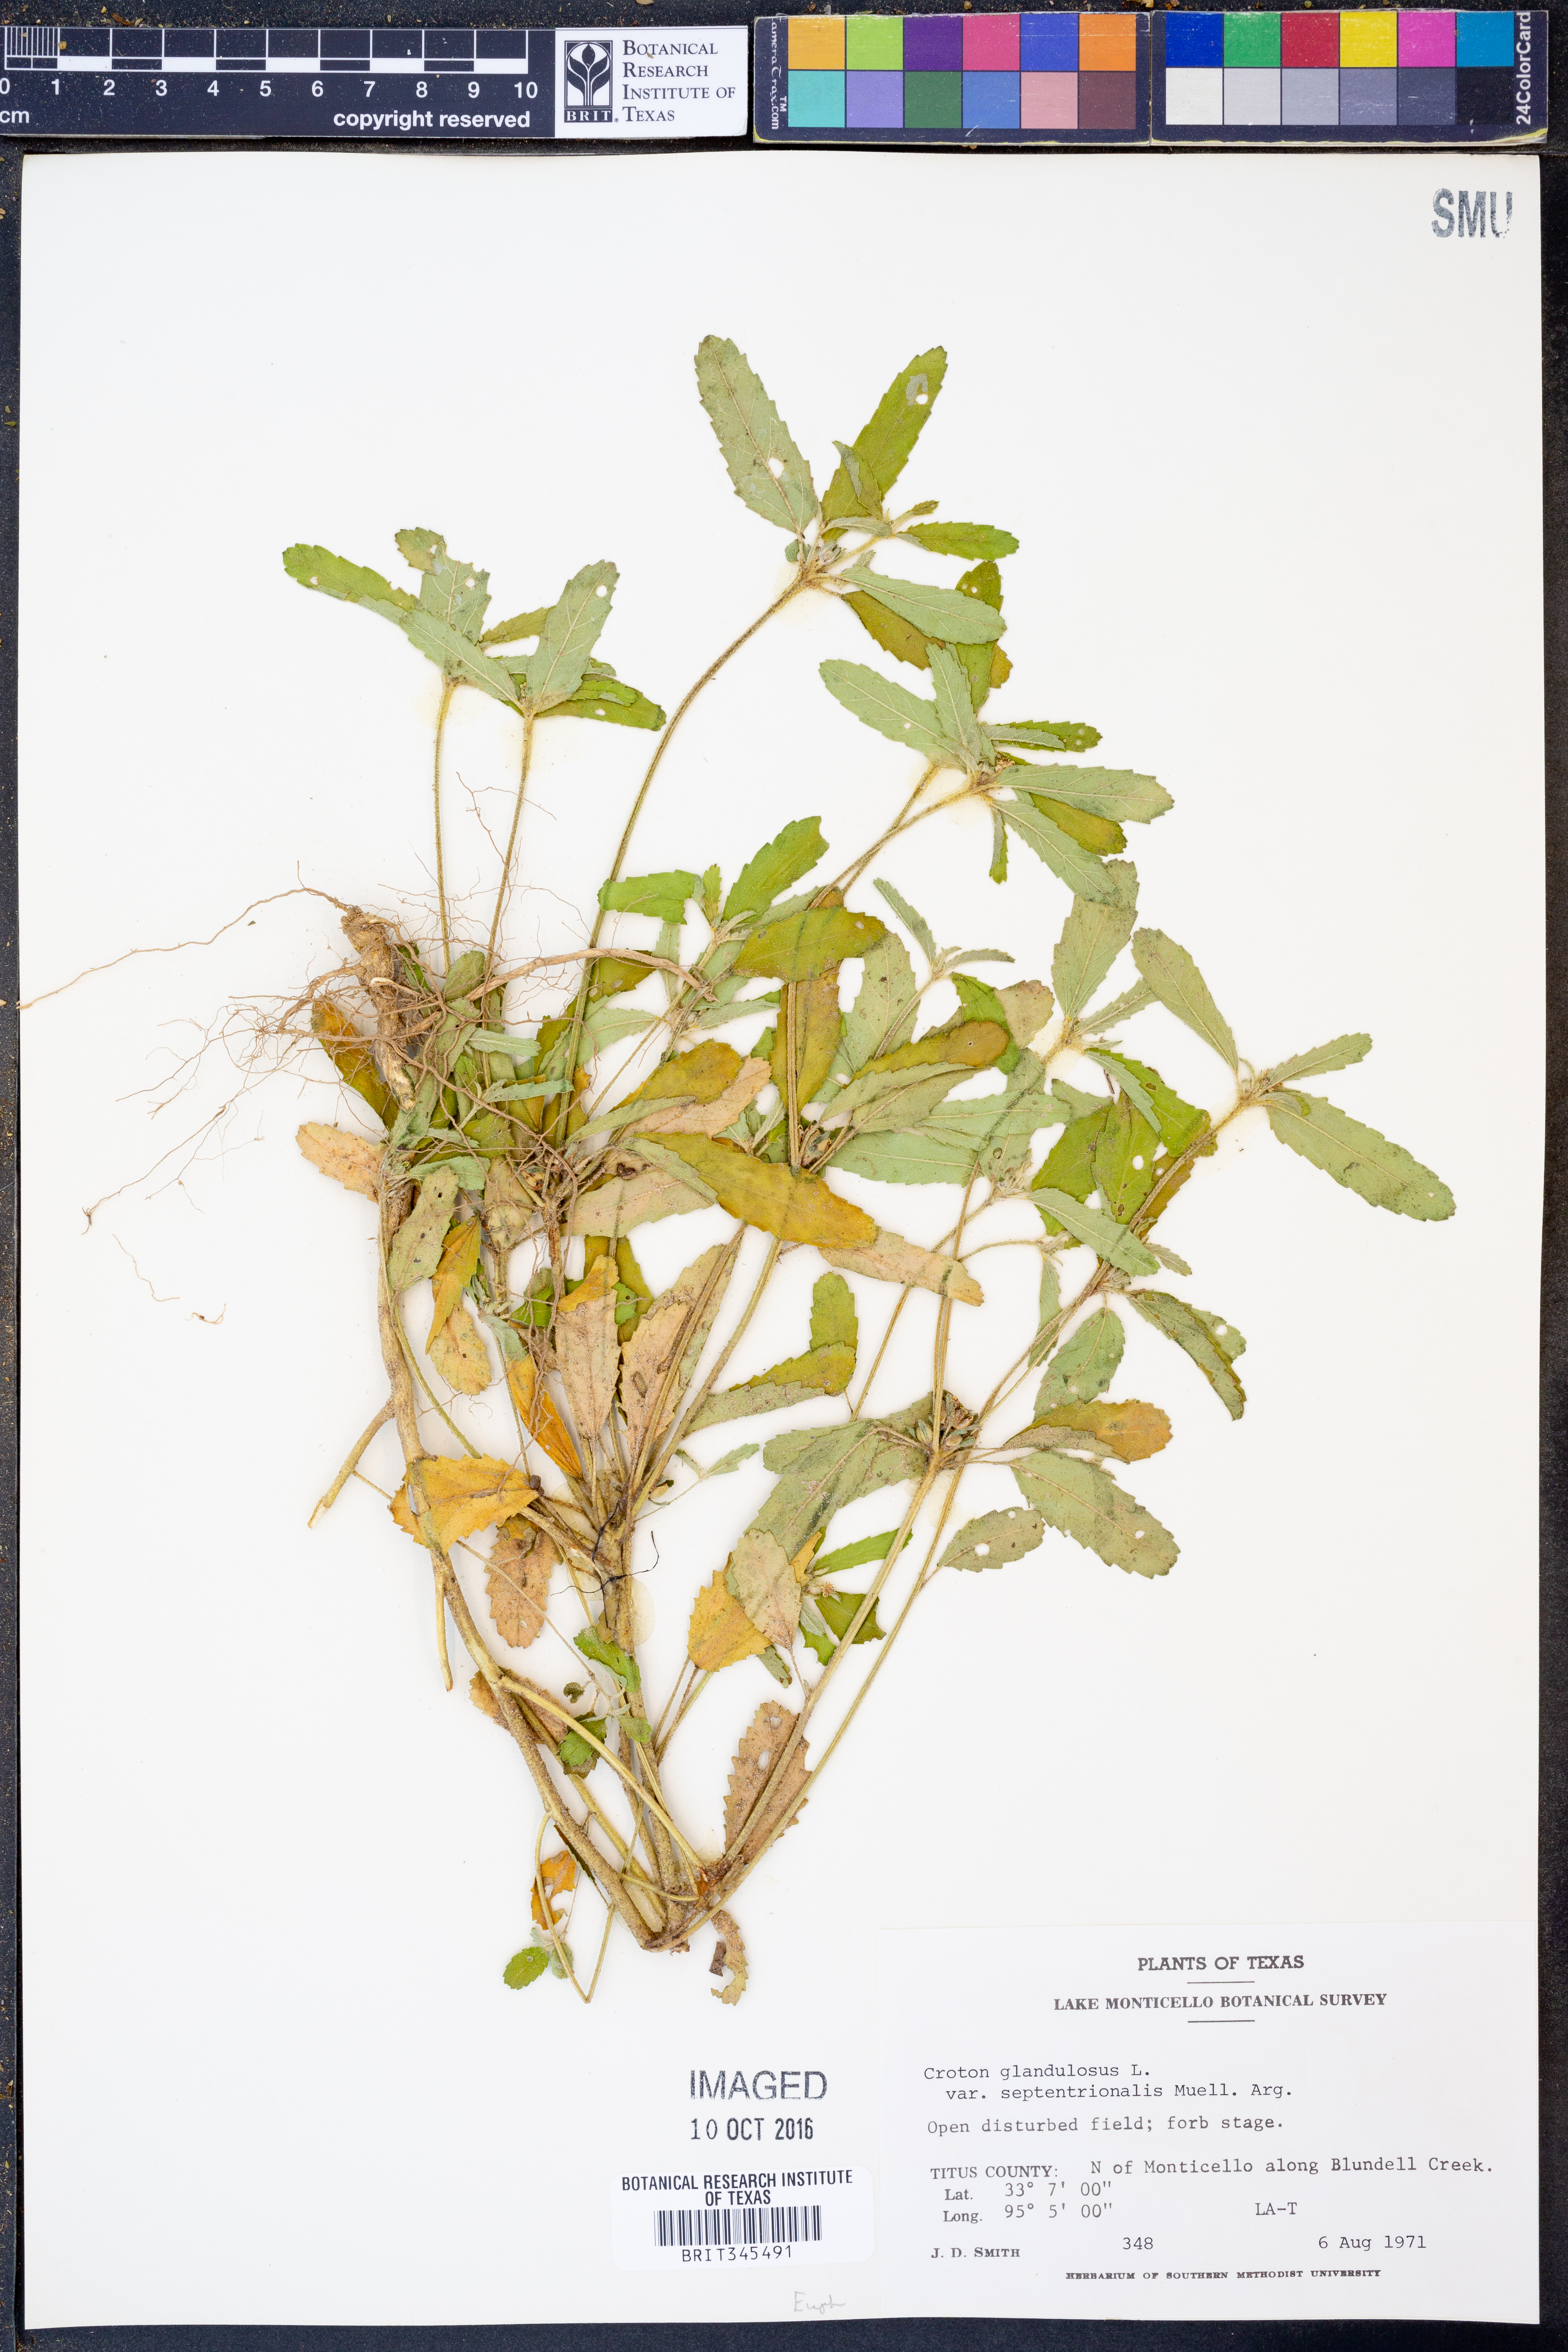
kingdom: Plantae
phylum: Tracheophyta
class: Magnoliopsida
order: Malpighiales
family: Euphorbiaceae
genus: Croton
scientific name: Croton glandulosus
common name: Tropic croton
